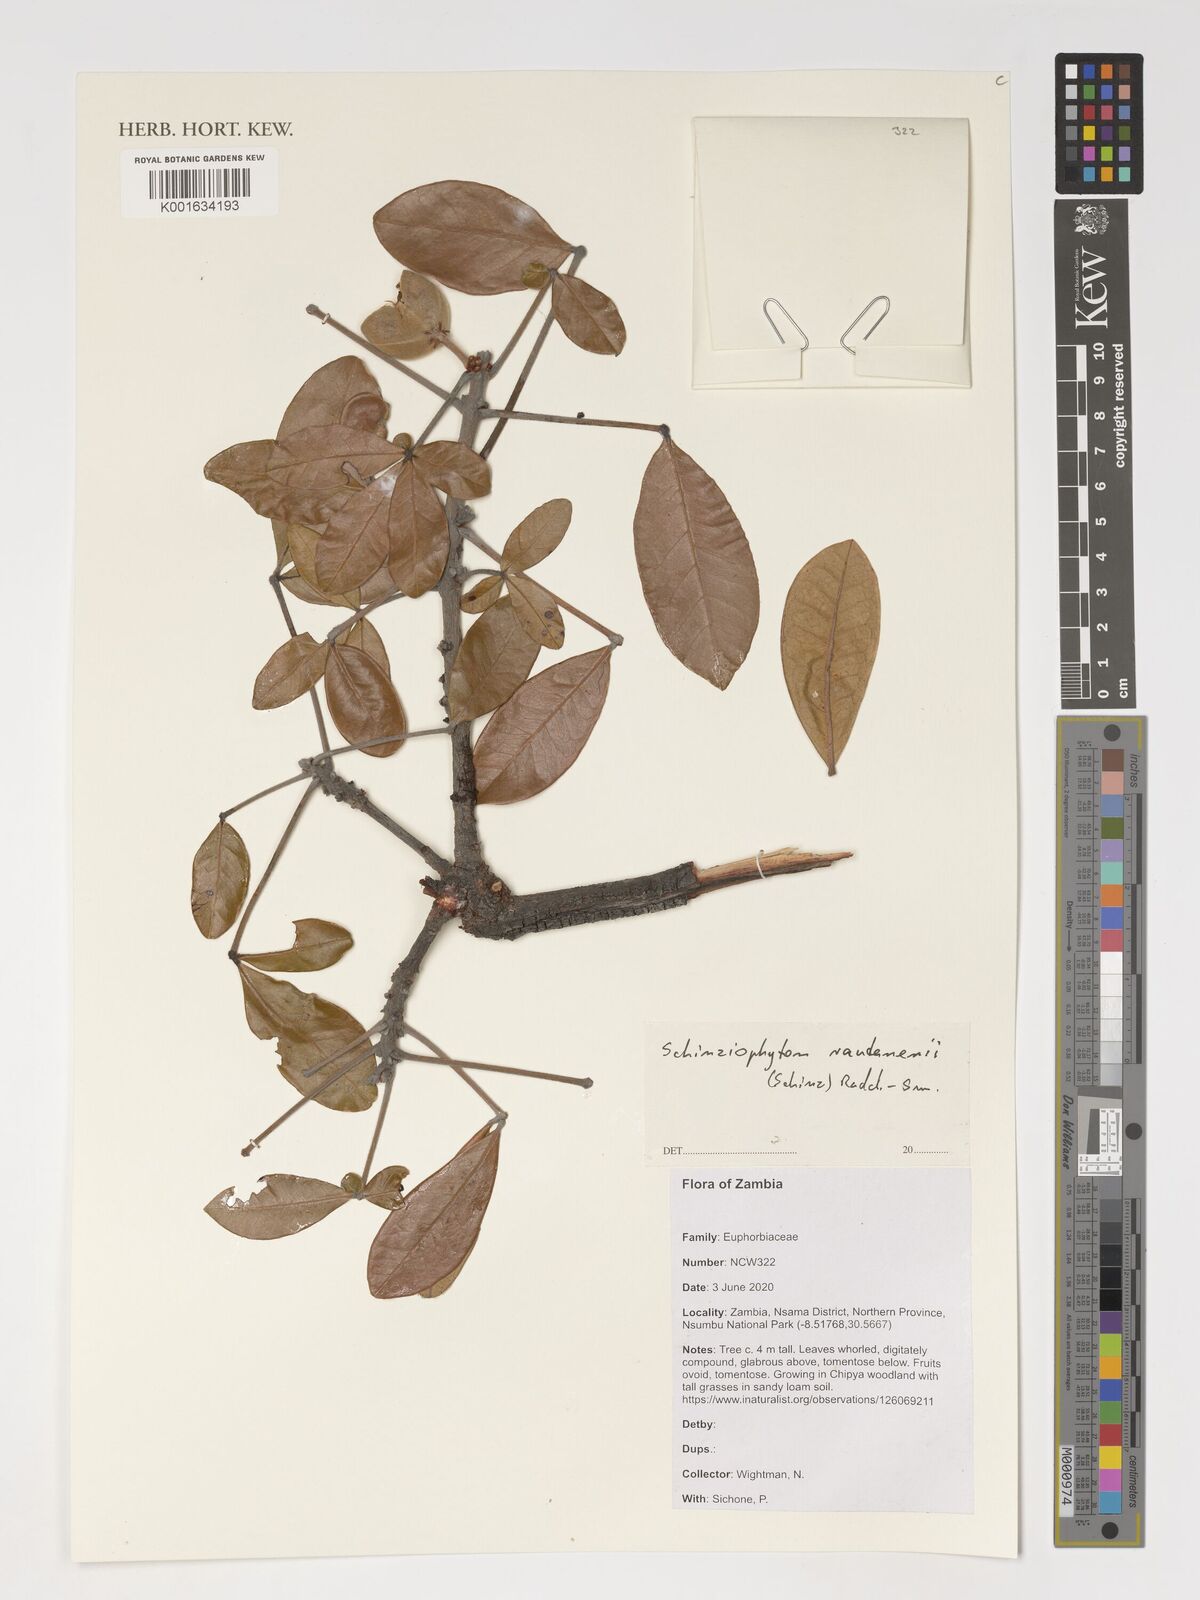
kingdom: Plantae
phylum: Tracheophyta
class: Magnoliopsida
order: Malpighiales
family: Euphorbiaceae
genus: Schinziophyton
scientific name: Schinziophyton rautanenii
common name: Manketti
